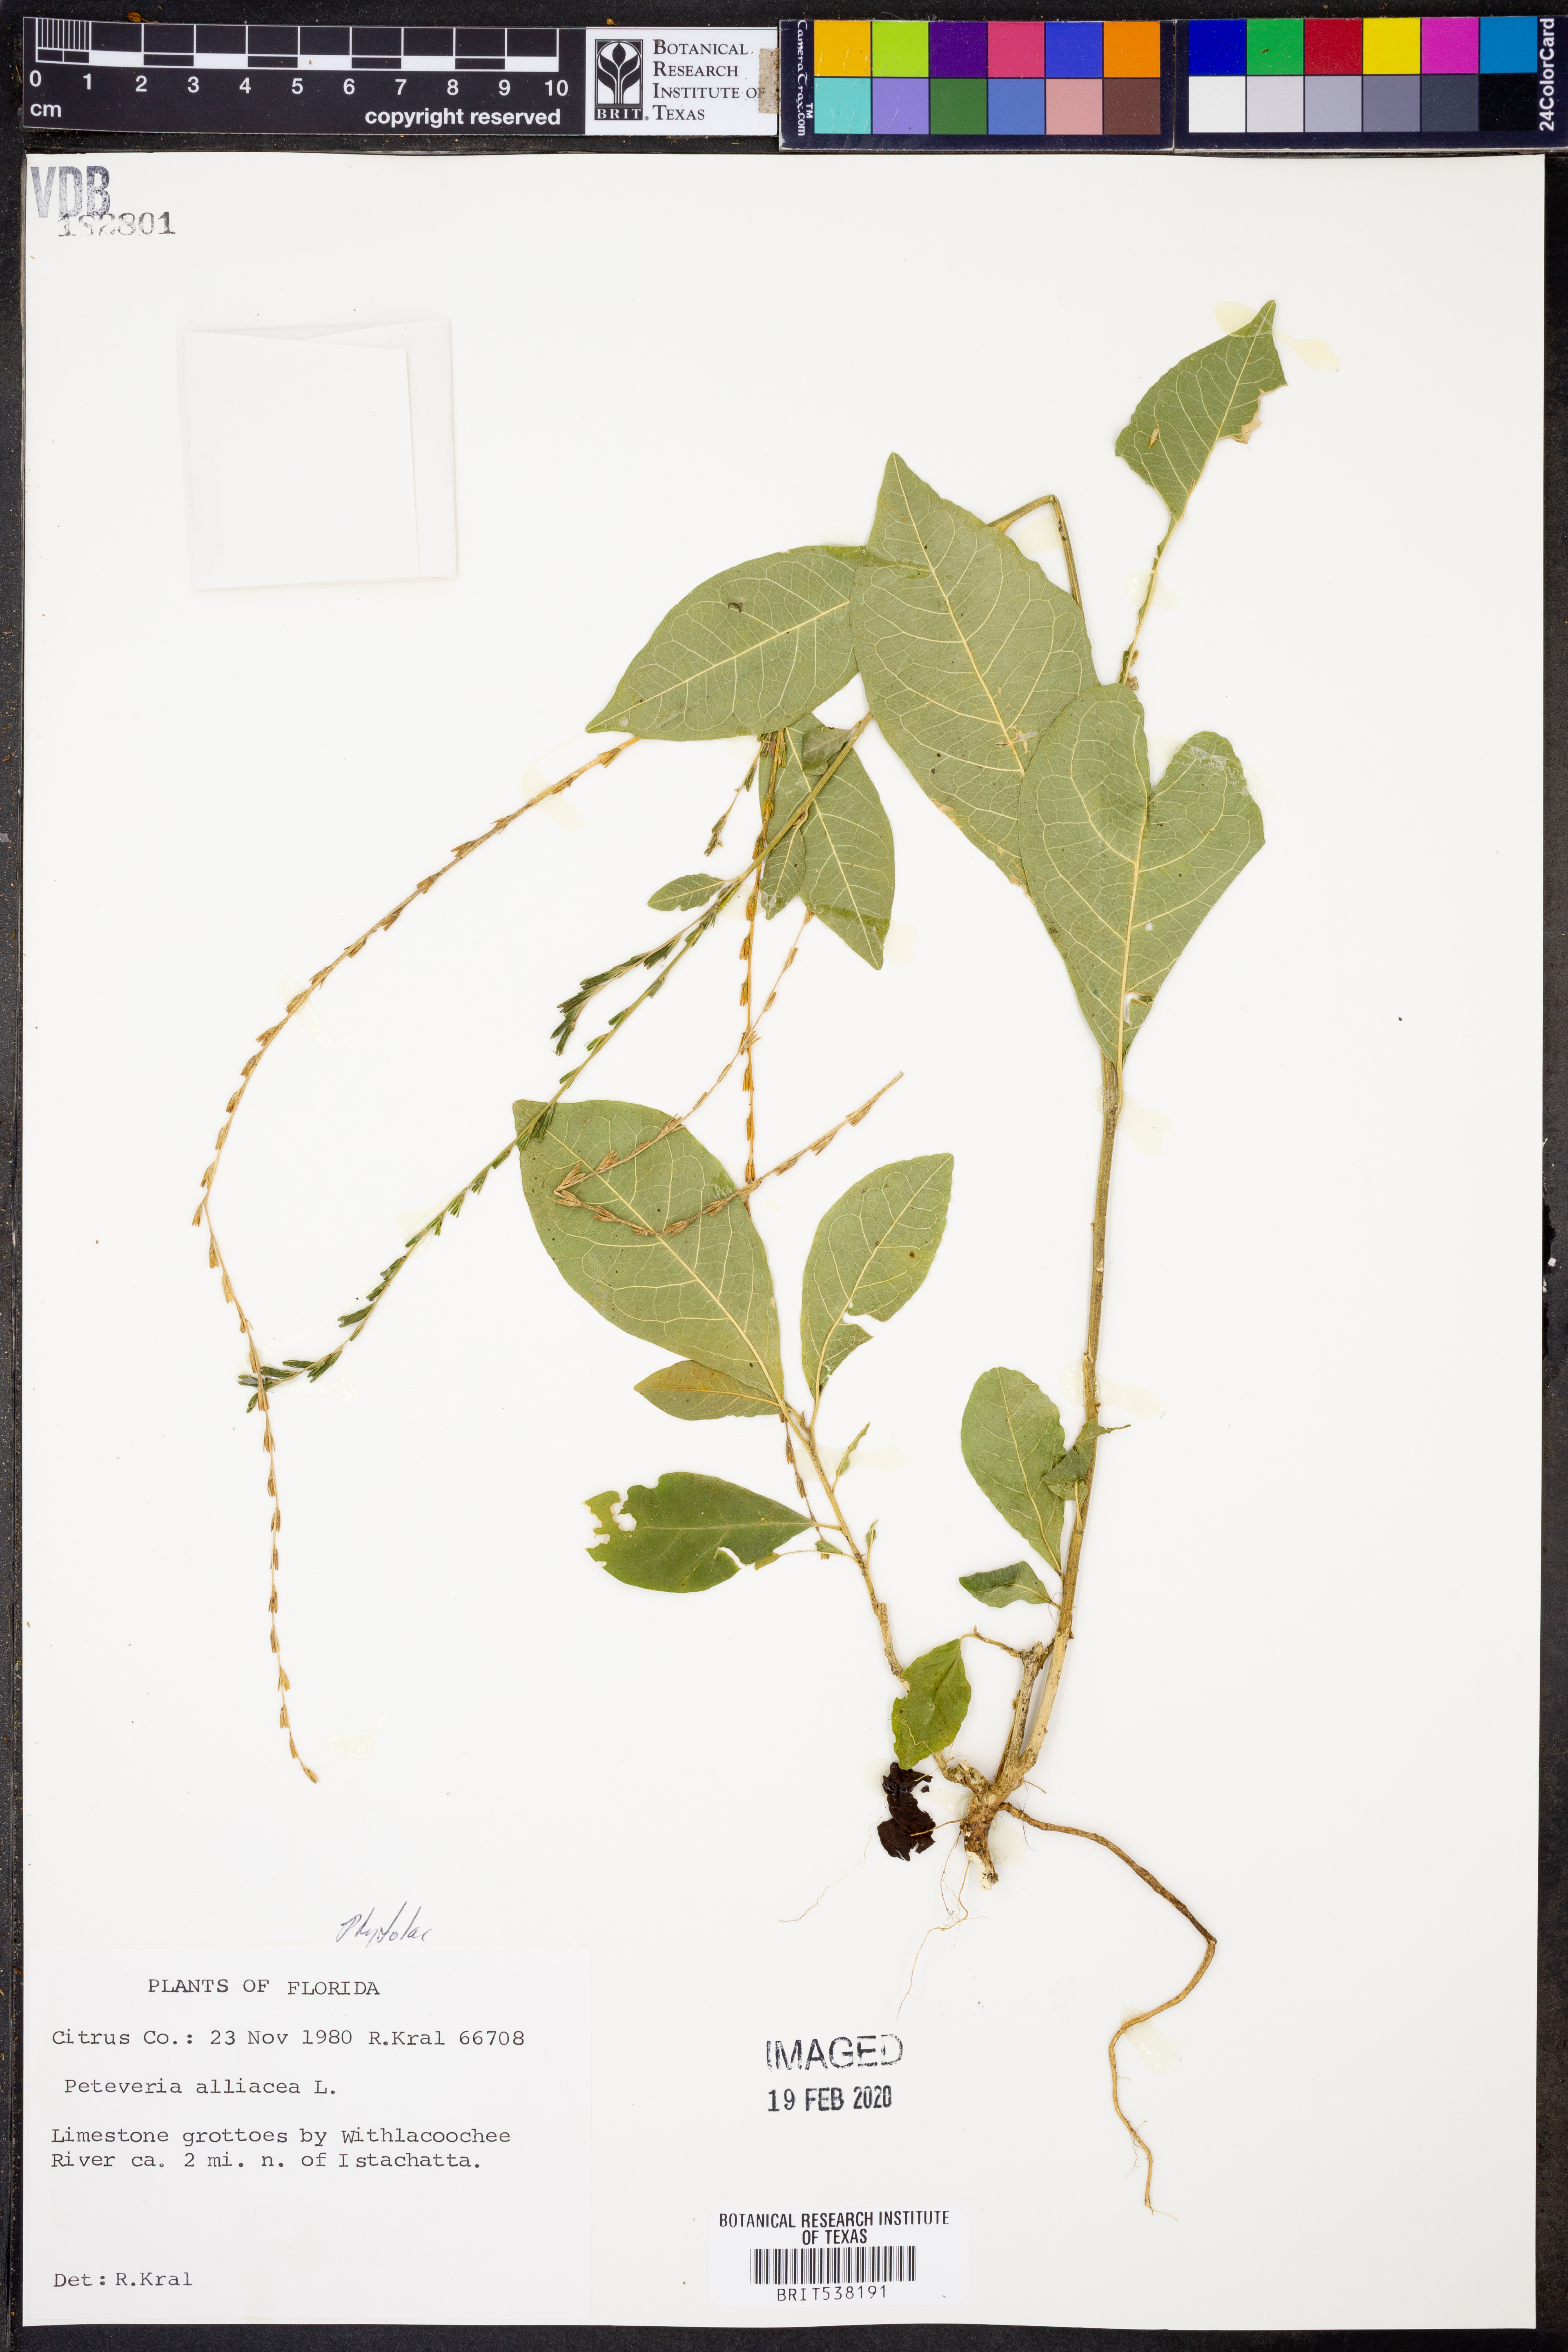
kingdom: Plantae
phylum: Tracheophyta
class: Magnoliopsida
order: Caryophyllales
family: Phytolaccaceae
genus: Petiveria
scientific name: Petiveria alliacea
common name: Garlicweed
